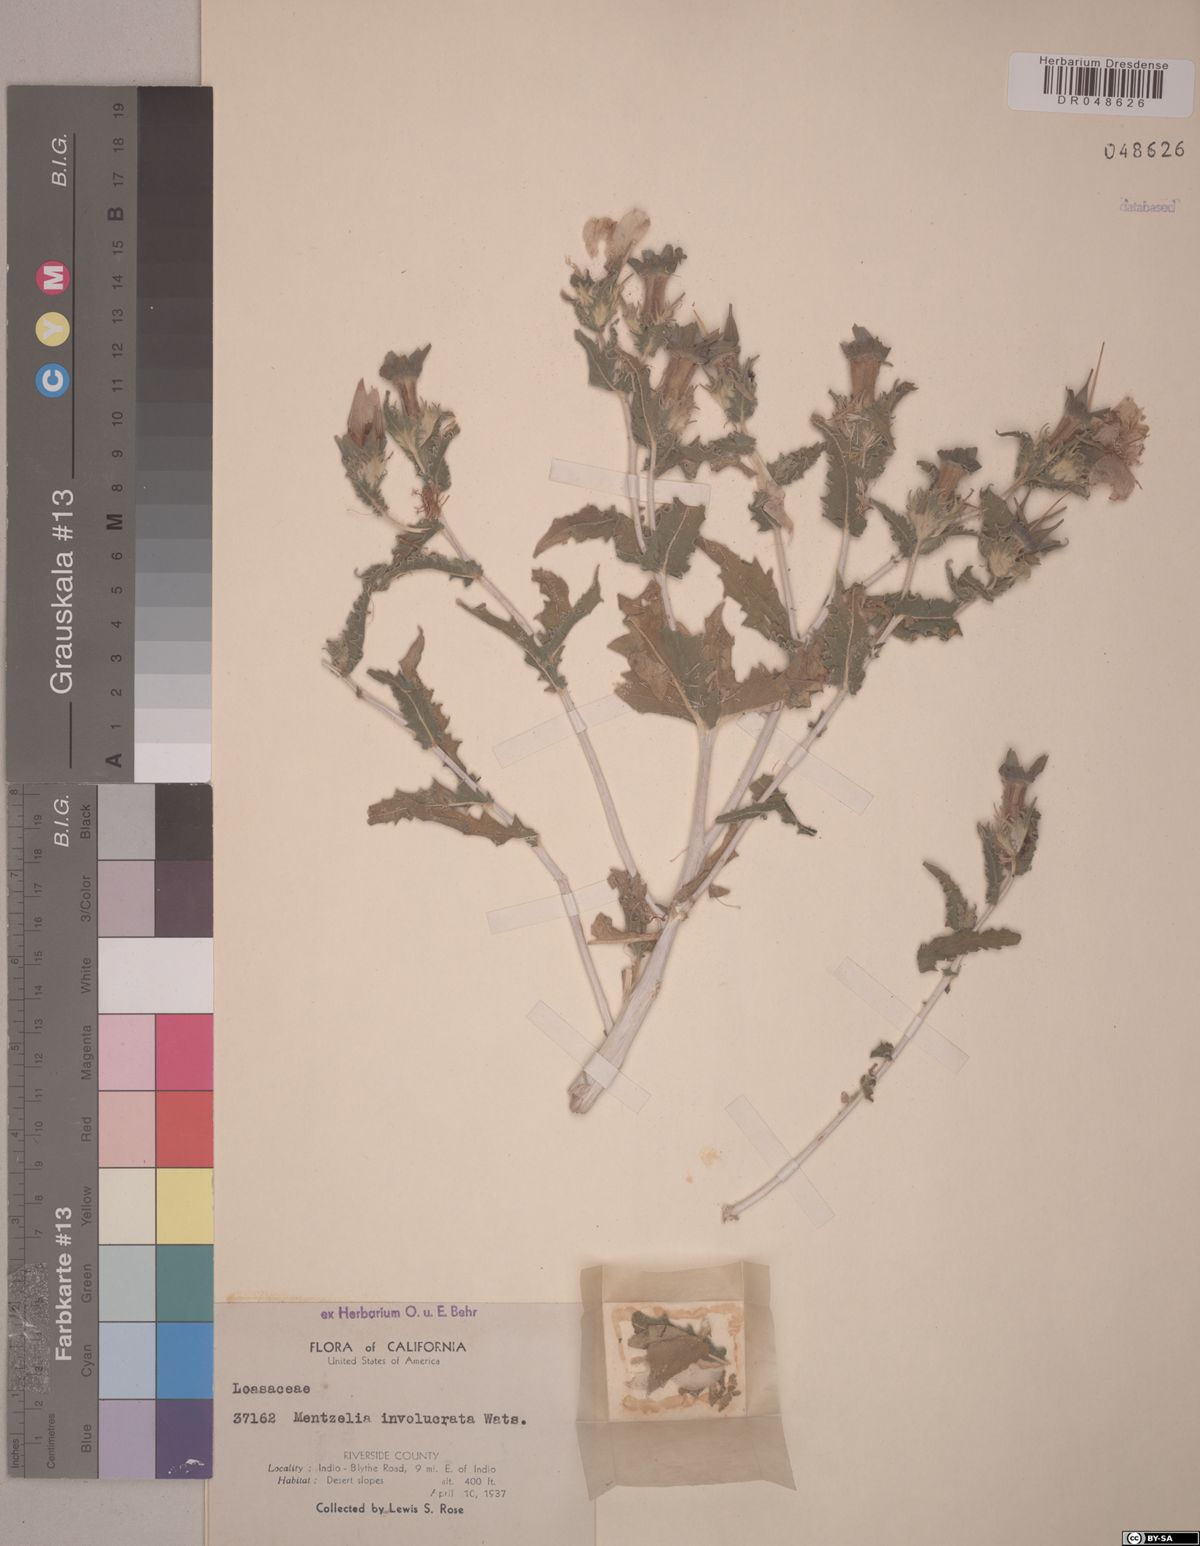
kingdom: Plantae
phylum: Tracheophyta
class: Magnoliopsida
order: Cornales
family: Loasaceae
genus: Mentzelia
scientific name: Mentzelia involucrata
